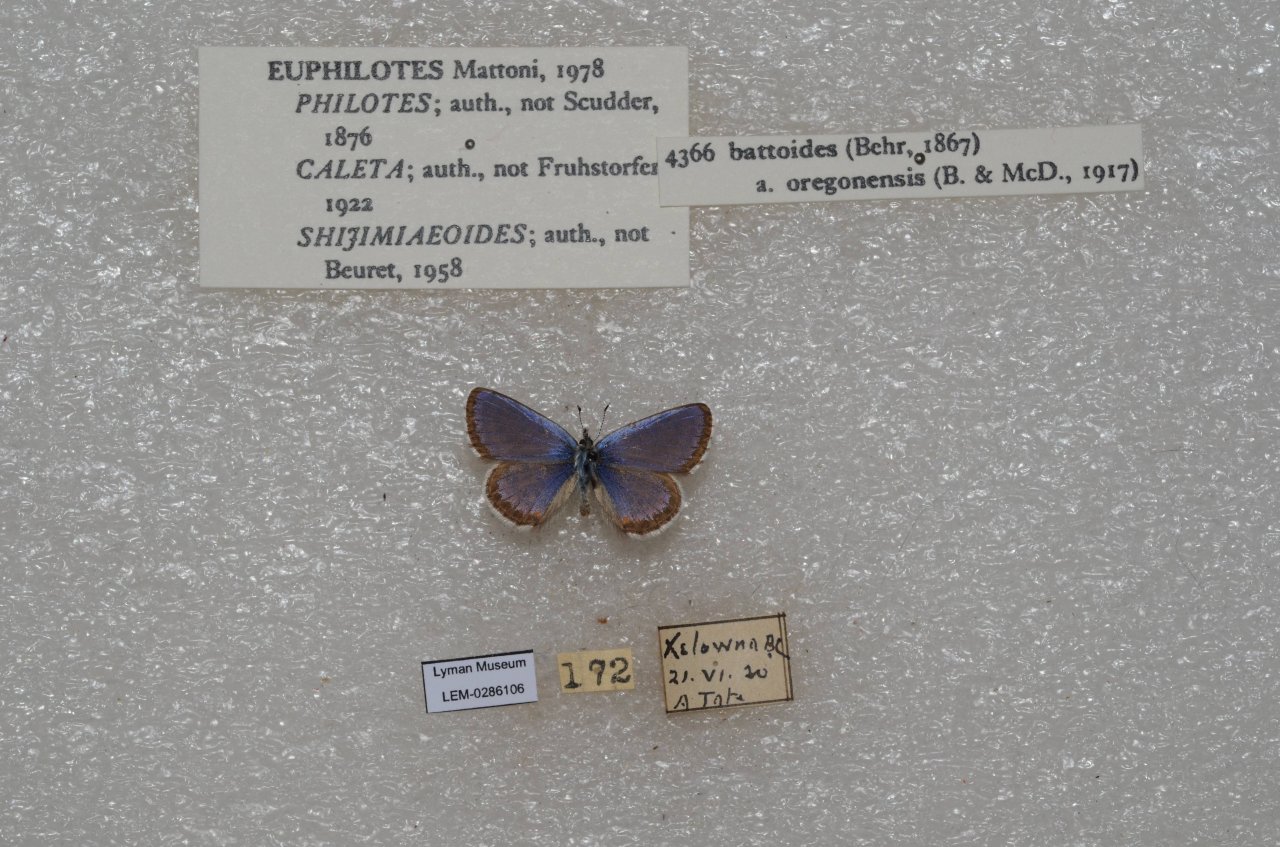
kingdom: Animalia
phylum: Arthropoda
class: Insecta
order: Lepidoptera
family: Lycaenidae
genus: Euphilotes
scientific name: Euphilotes battoides
